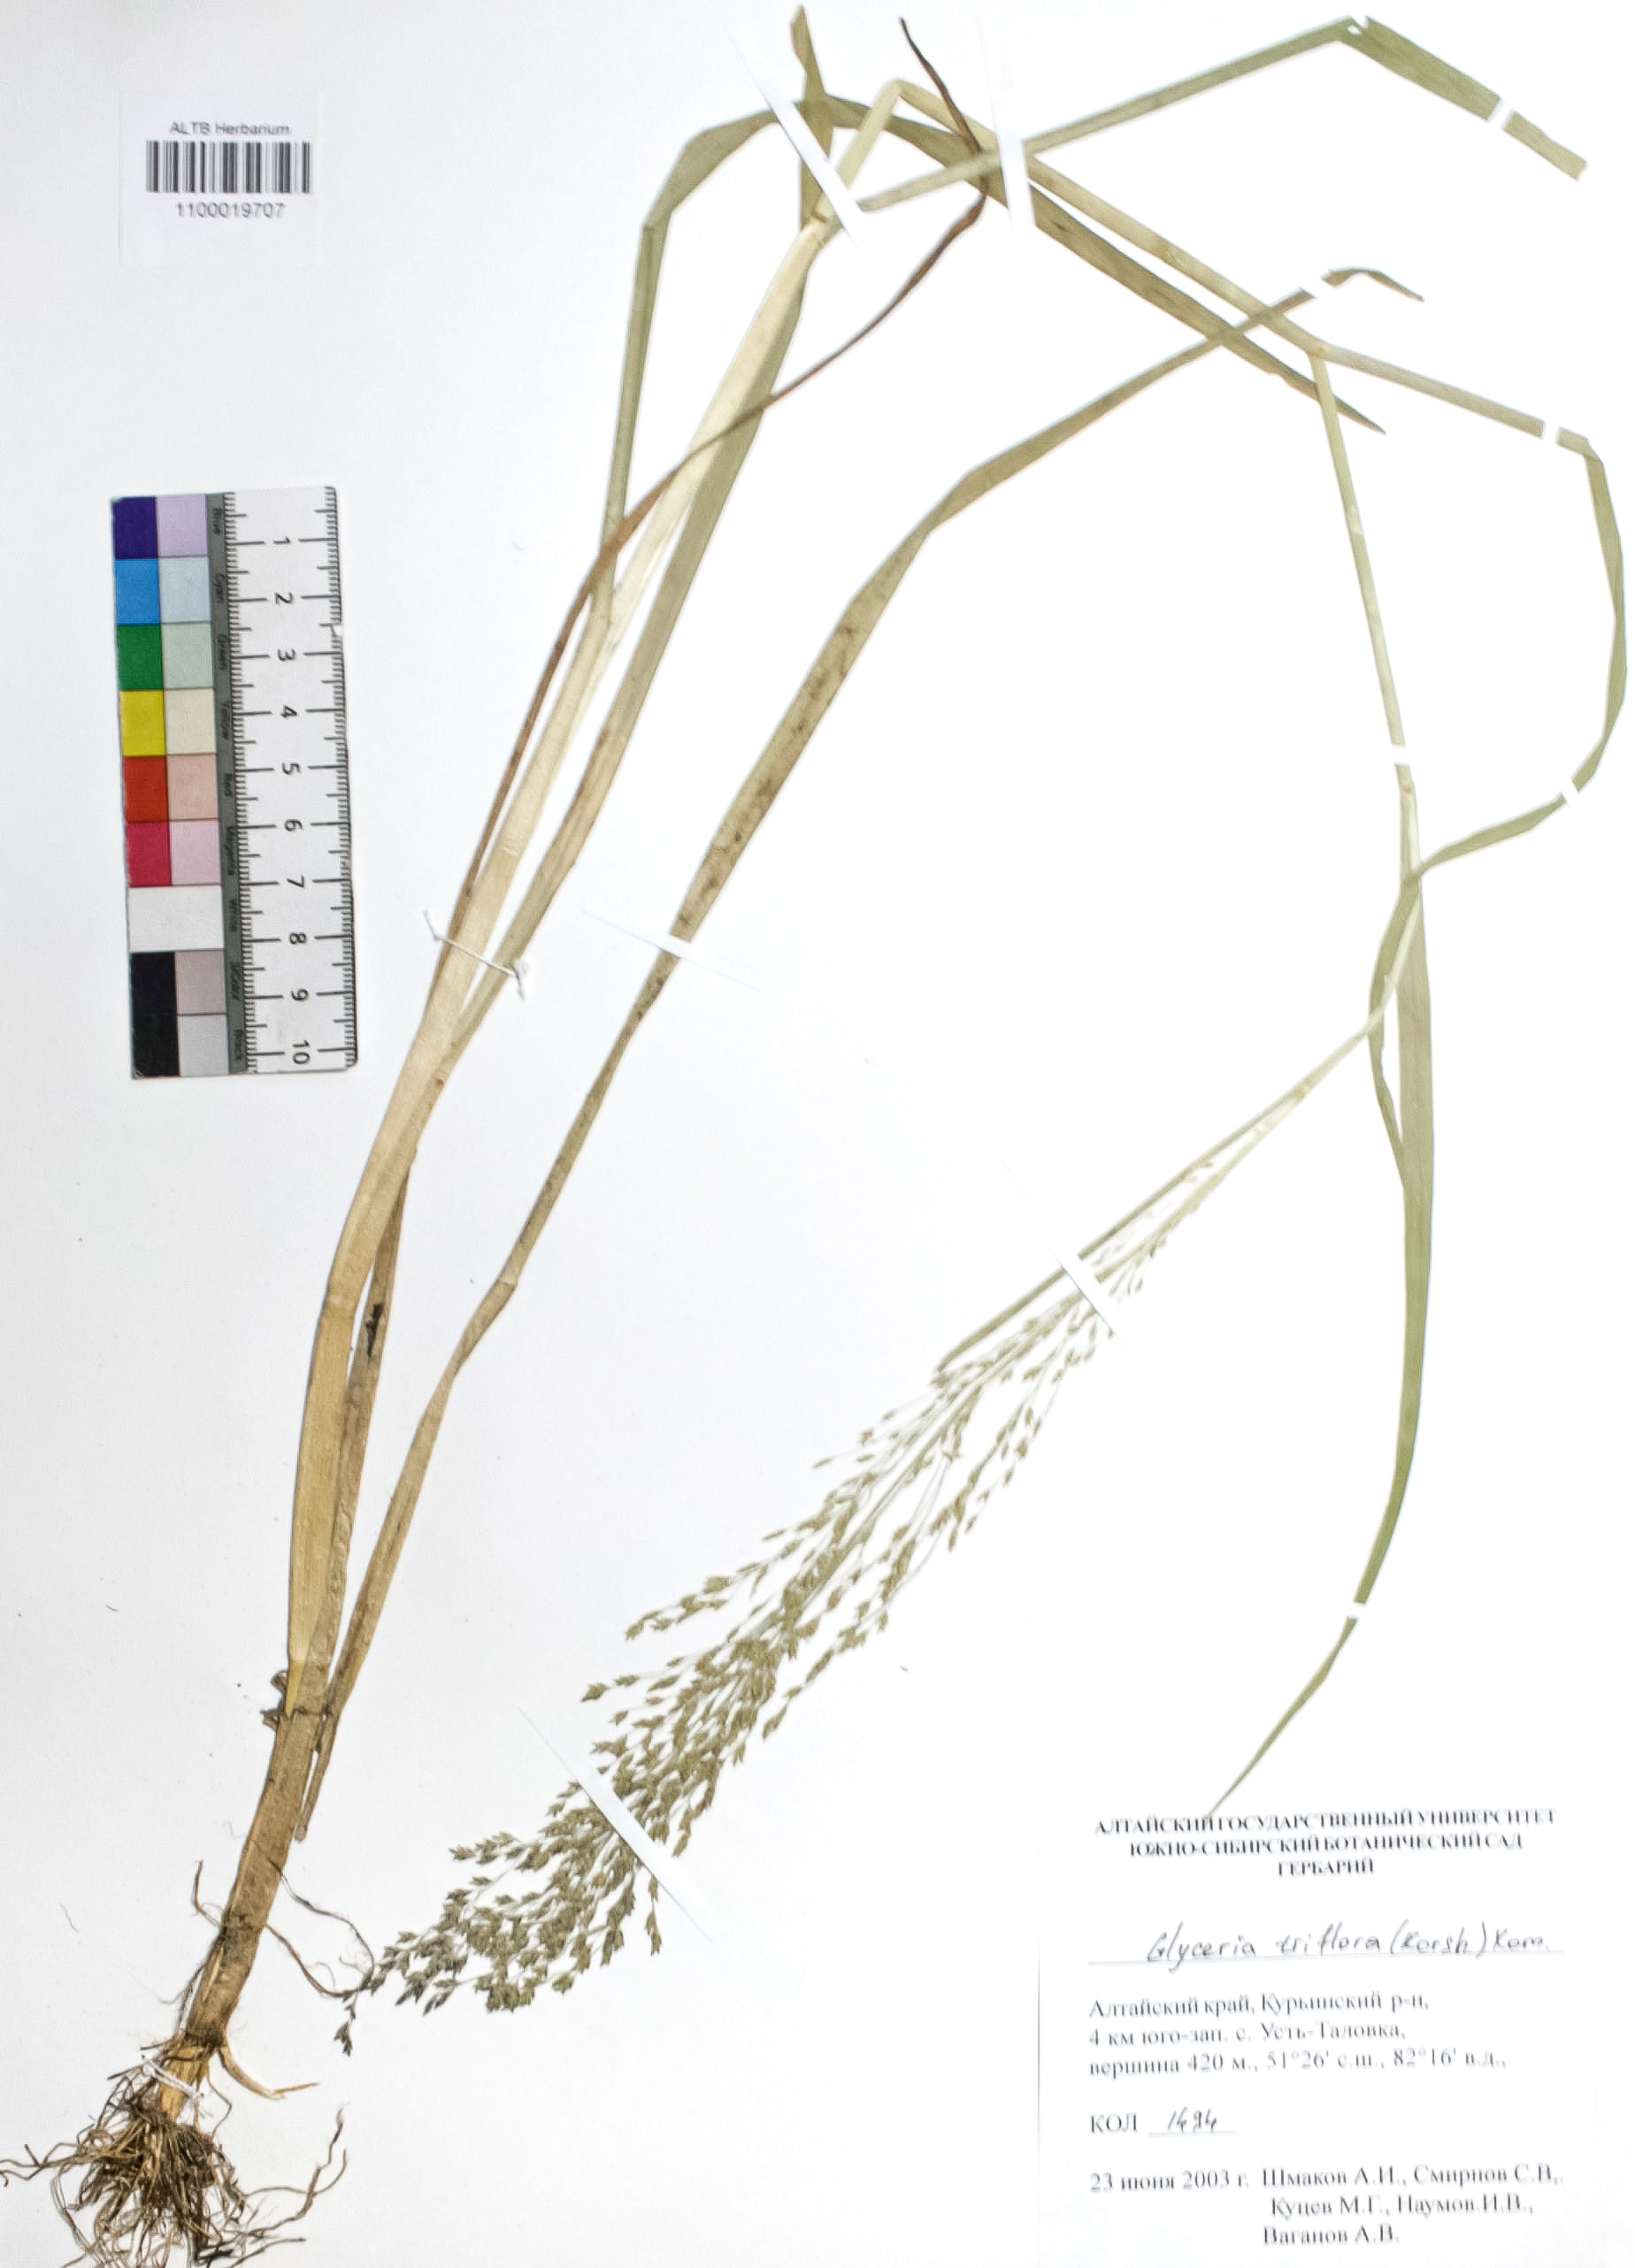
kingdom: Plantae
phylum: Tracheophyta
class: Liliopsida
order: Poales
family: Poaceae
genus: Glyceria
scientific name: Glyceria lithuanica
